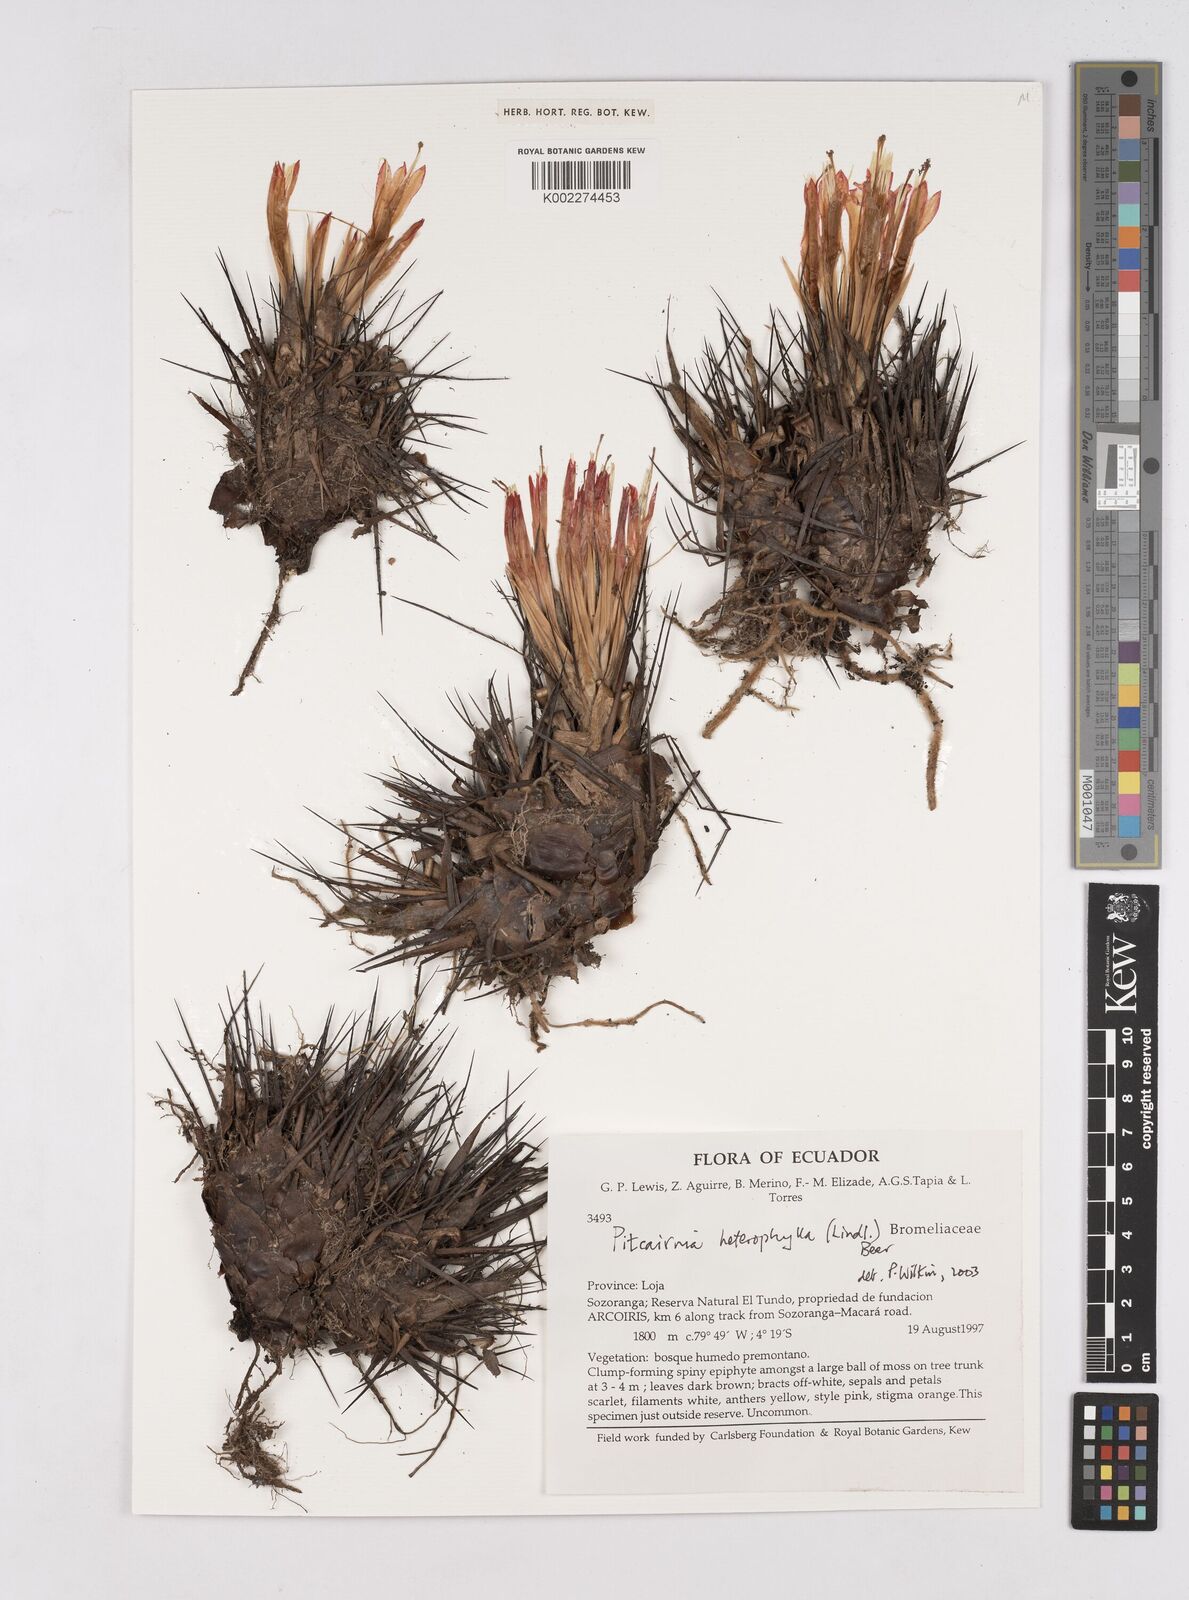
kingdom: Plantae
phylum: Tracheophyta
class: Liliopsida
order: Poales
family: Bromeliaceae
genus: Pitcairnia
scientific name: Pitcairnia heterophylla
